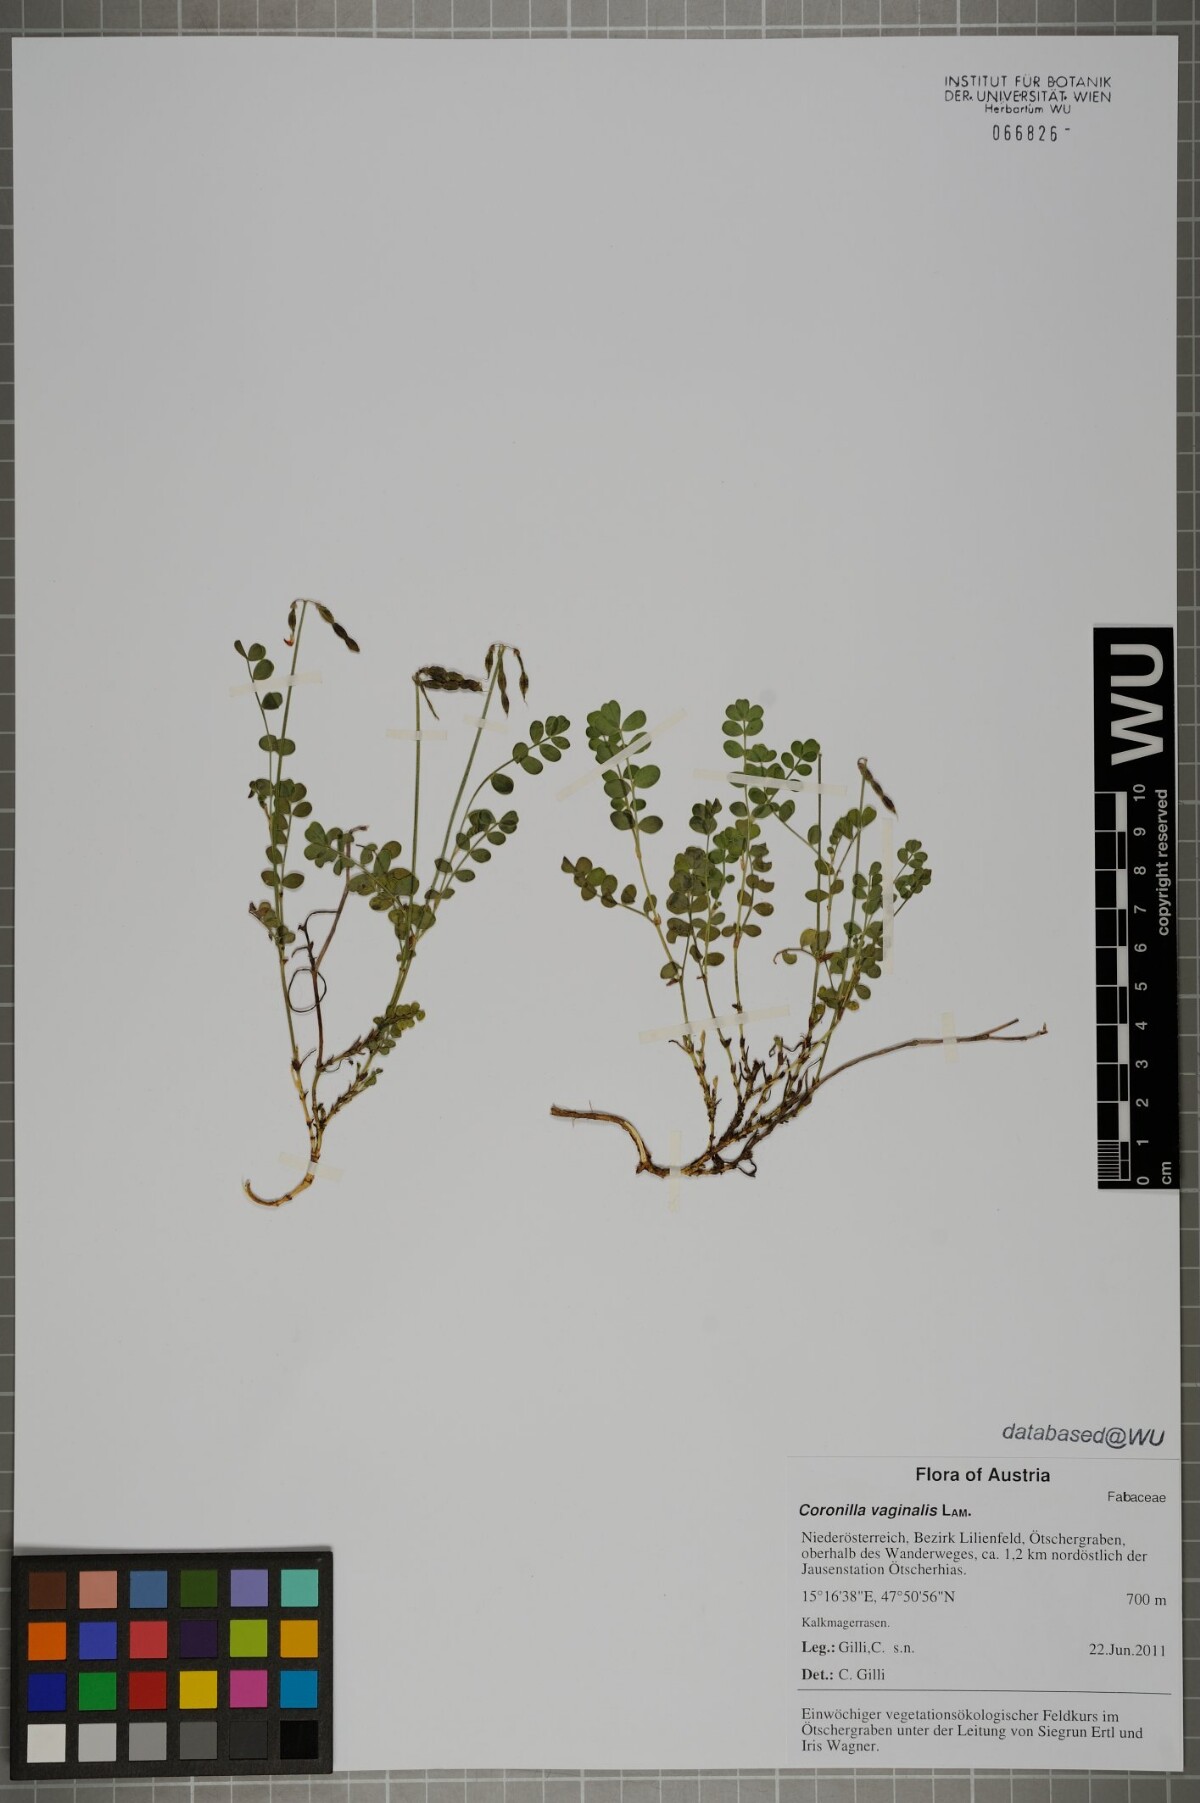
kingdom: Plantae
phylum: Tracheophyta
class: Magnoliopsida
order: Fabales
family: Fabaceae
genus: Coronilla
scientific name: Coronilla vaginalis
